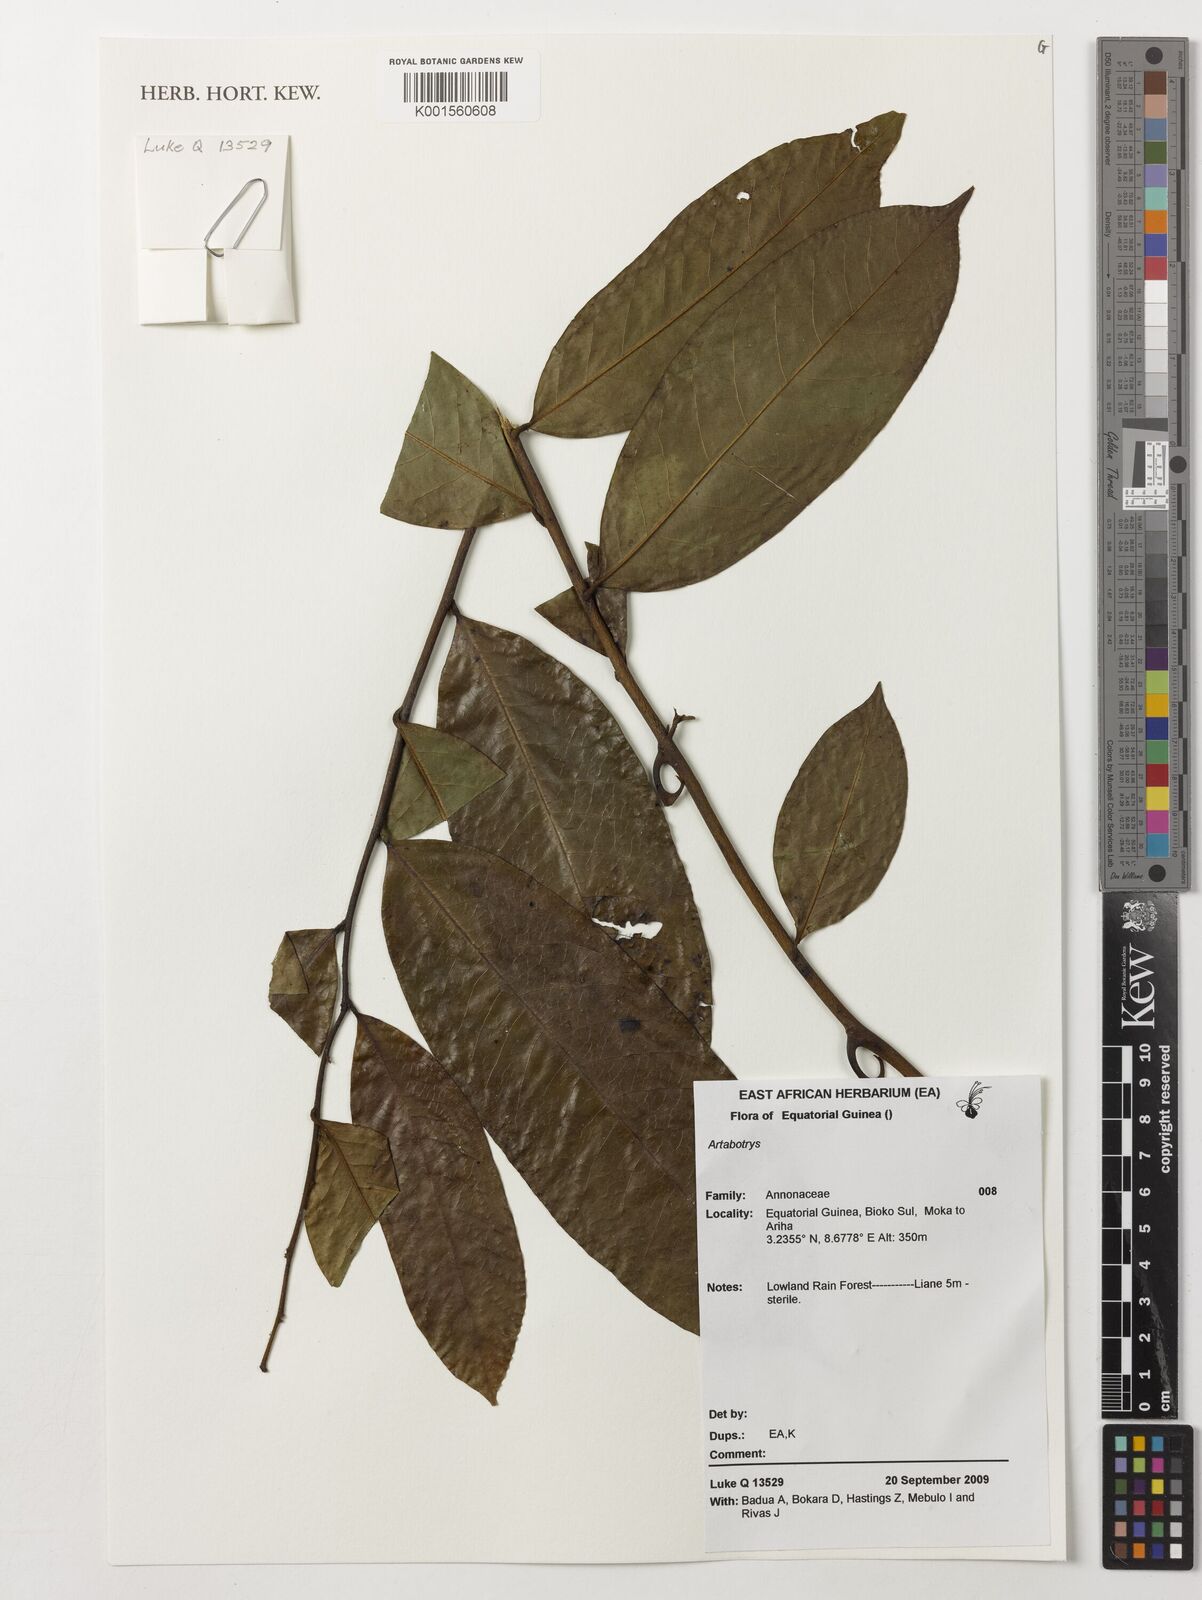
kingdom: Plantae
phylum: Tracheophyta
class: Magnoliopsida
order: Magnoliales
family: Annonaceae
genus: Artabotrys
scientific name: Artabotrys
